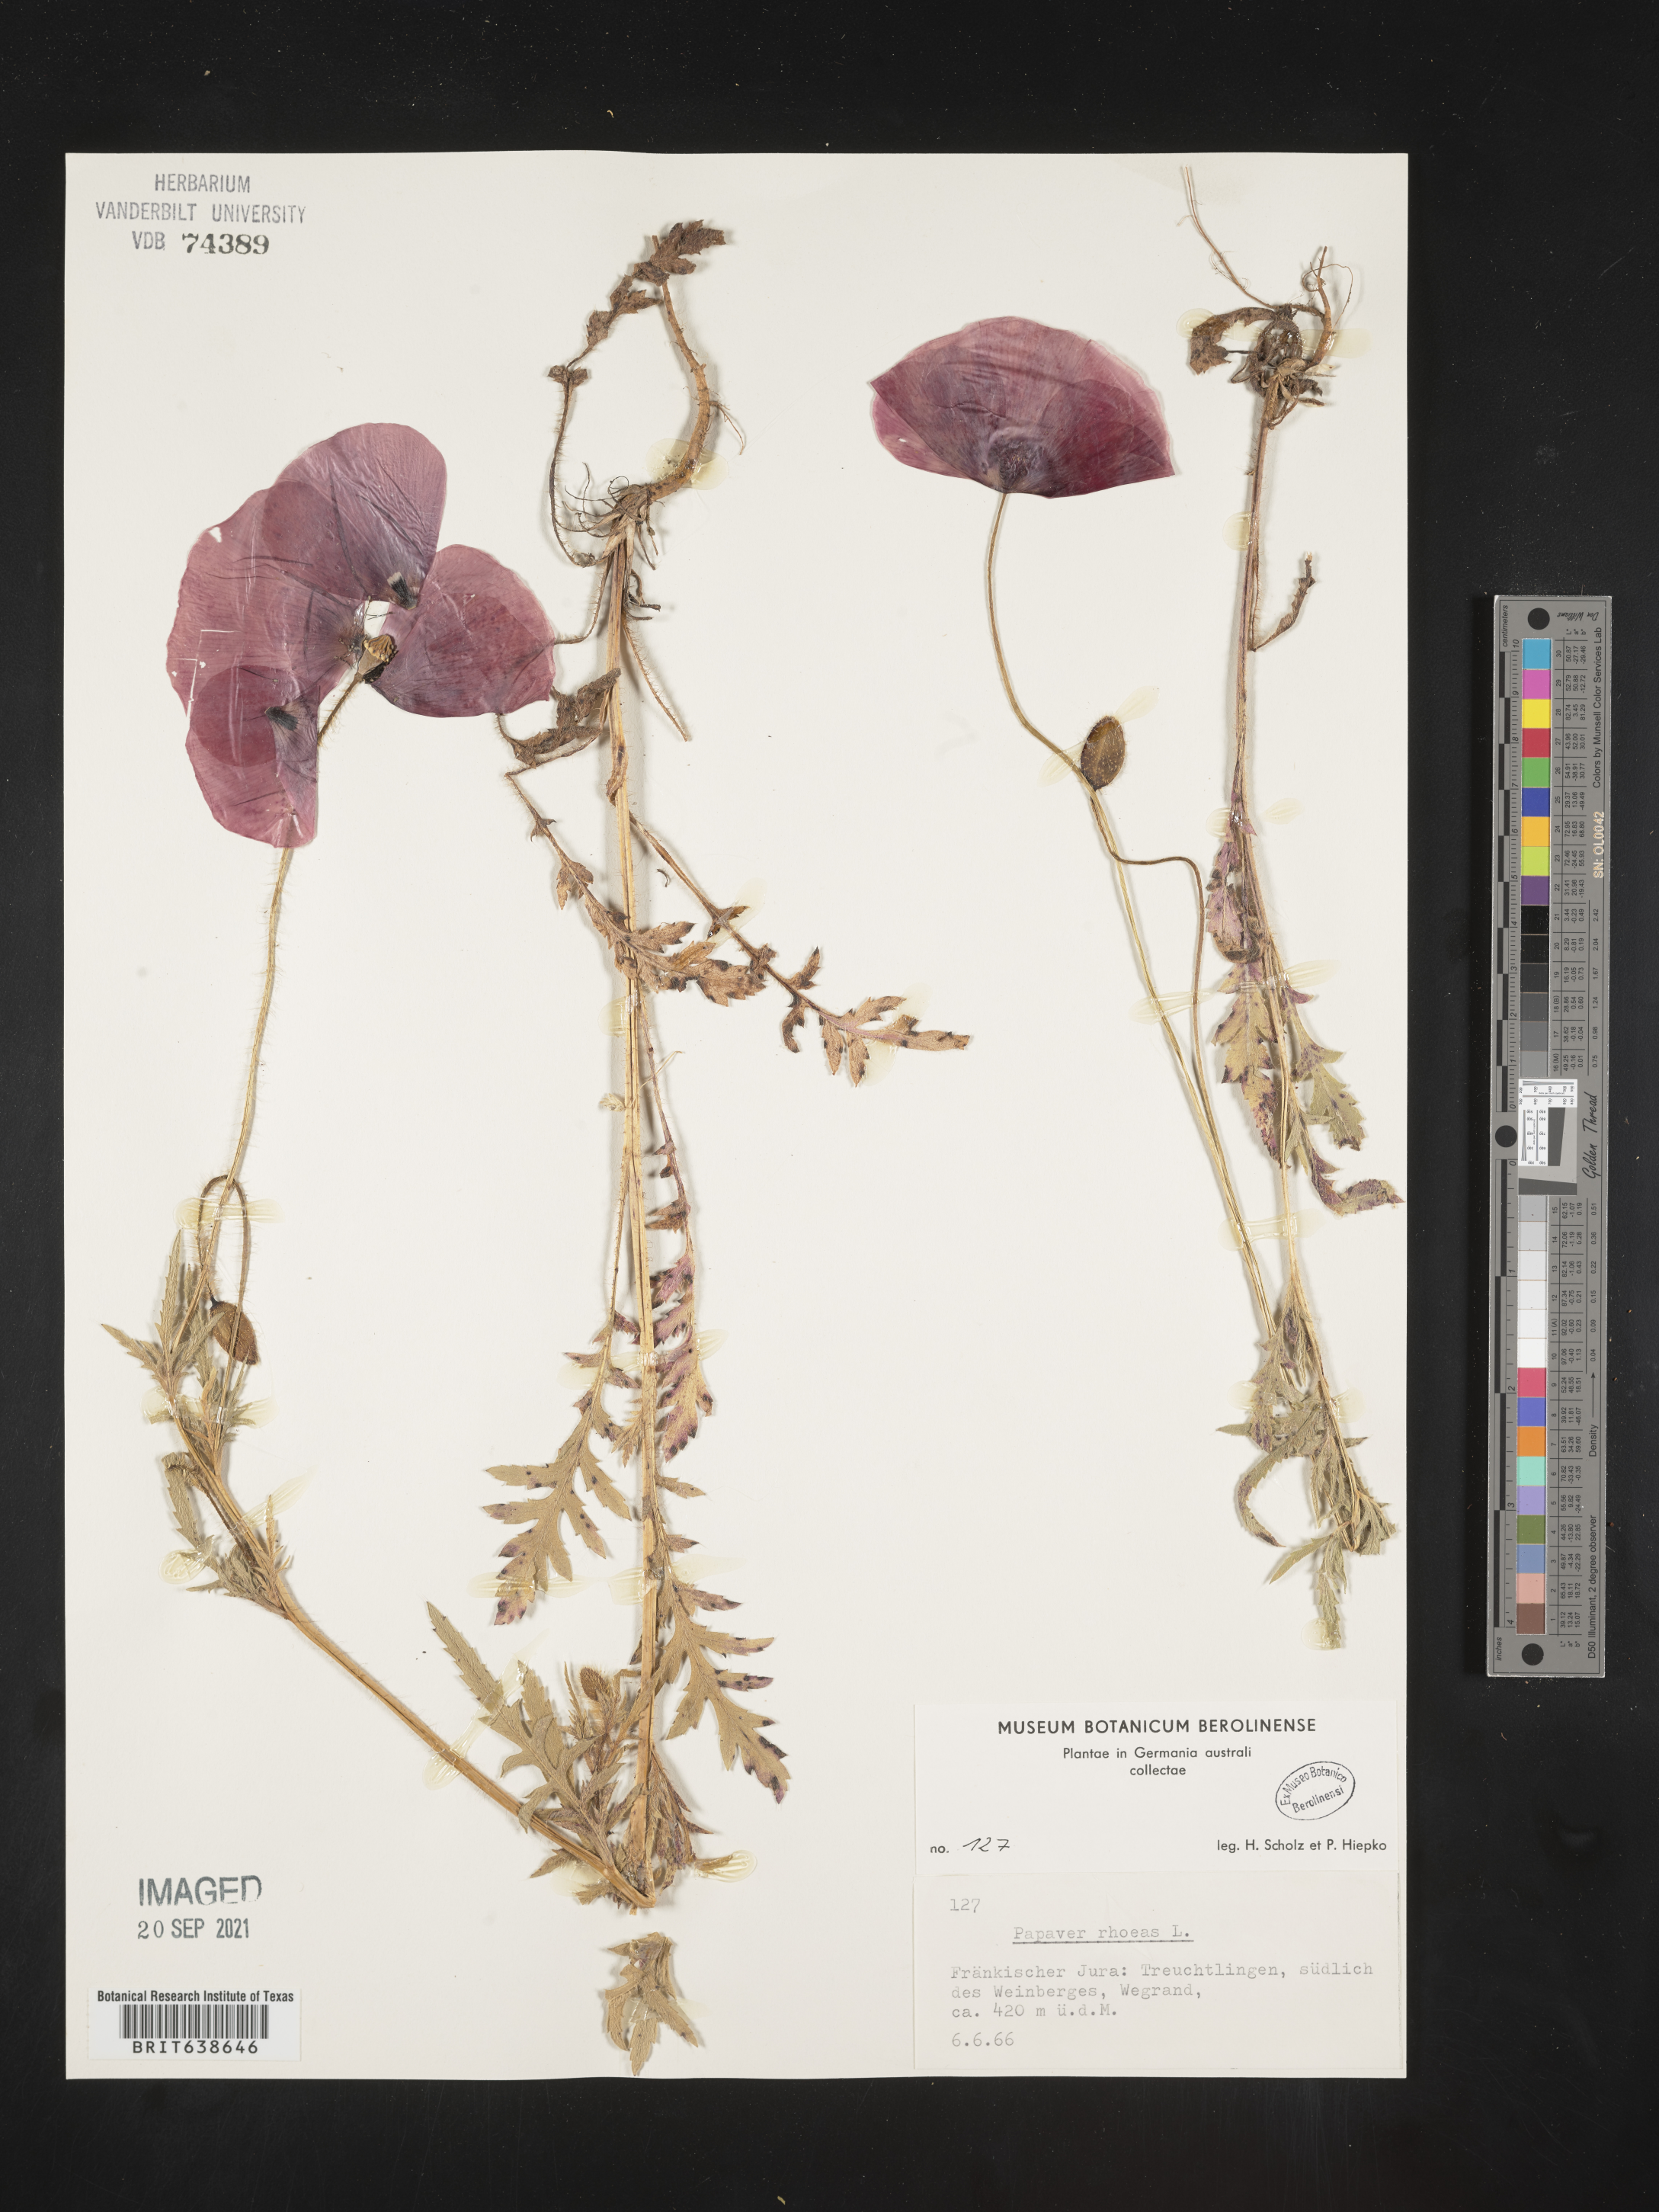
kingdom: Plantae
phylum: Tracheophyta
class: Magnoliopsida
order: Ranunculales
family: Papaveraceae
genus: Papaver
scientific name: Papaver
